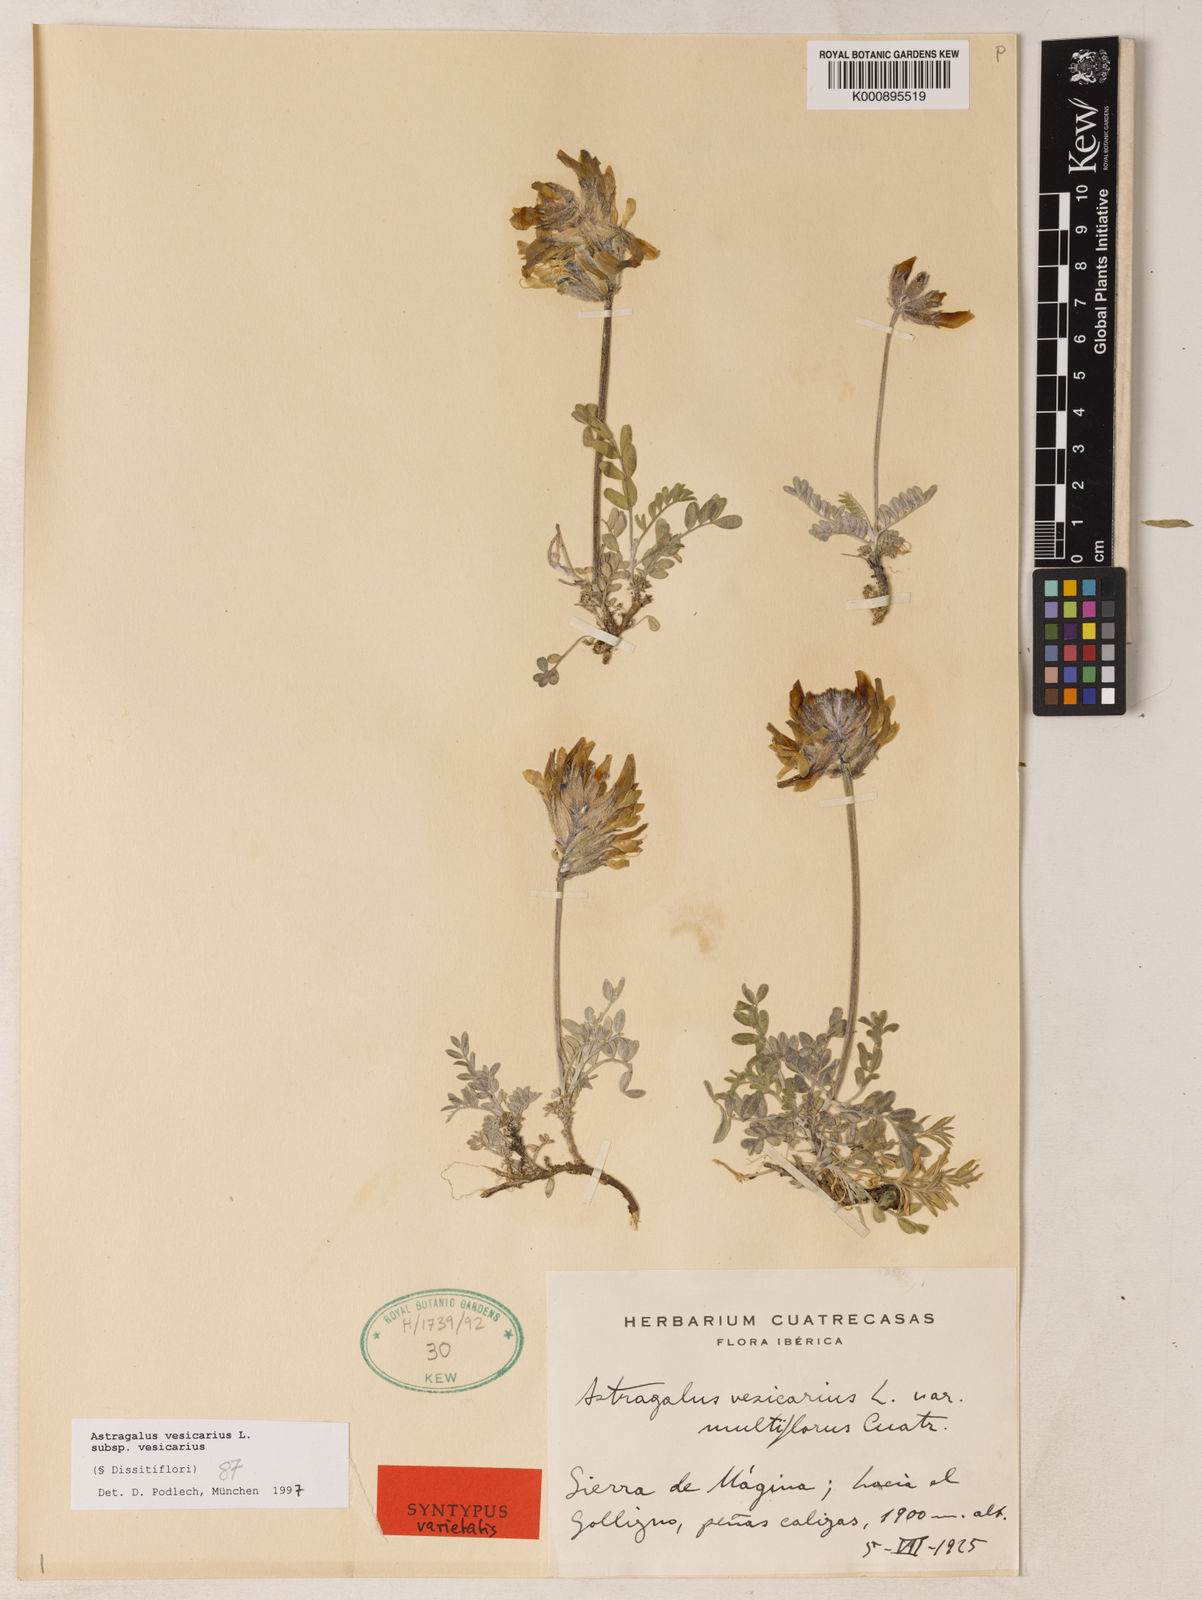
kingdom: Plantae
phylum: Tracheophyta
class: Magnoliopsida
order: Fabales
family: Fabaceae
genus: Astragalus
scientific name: Astragalus vesicarius
